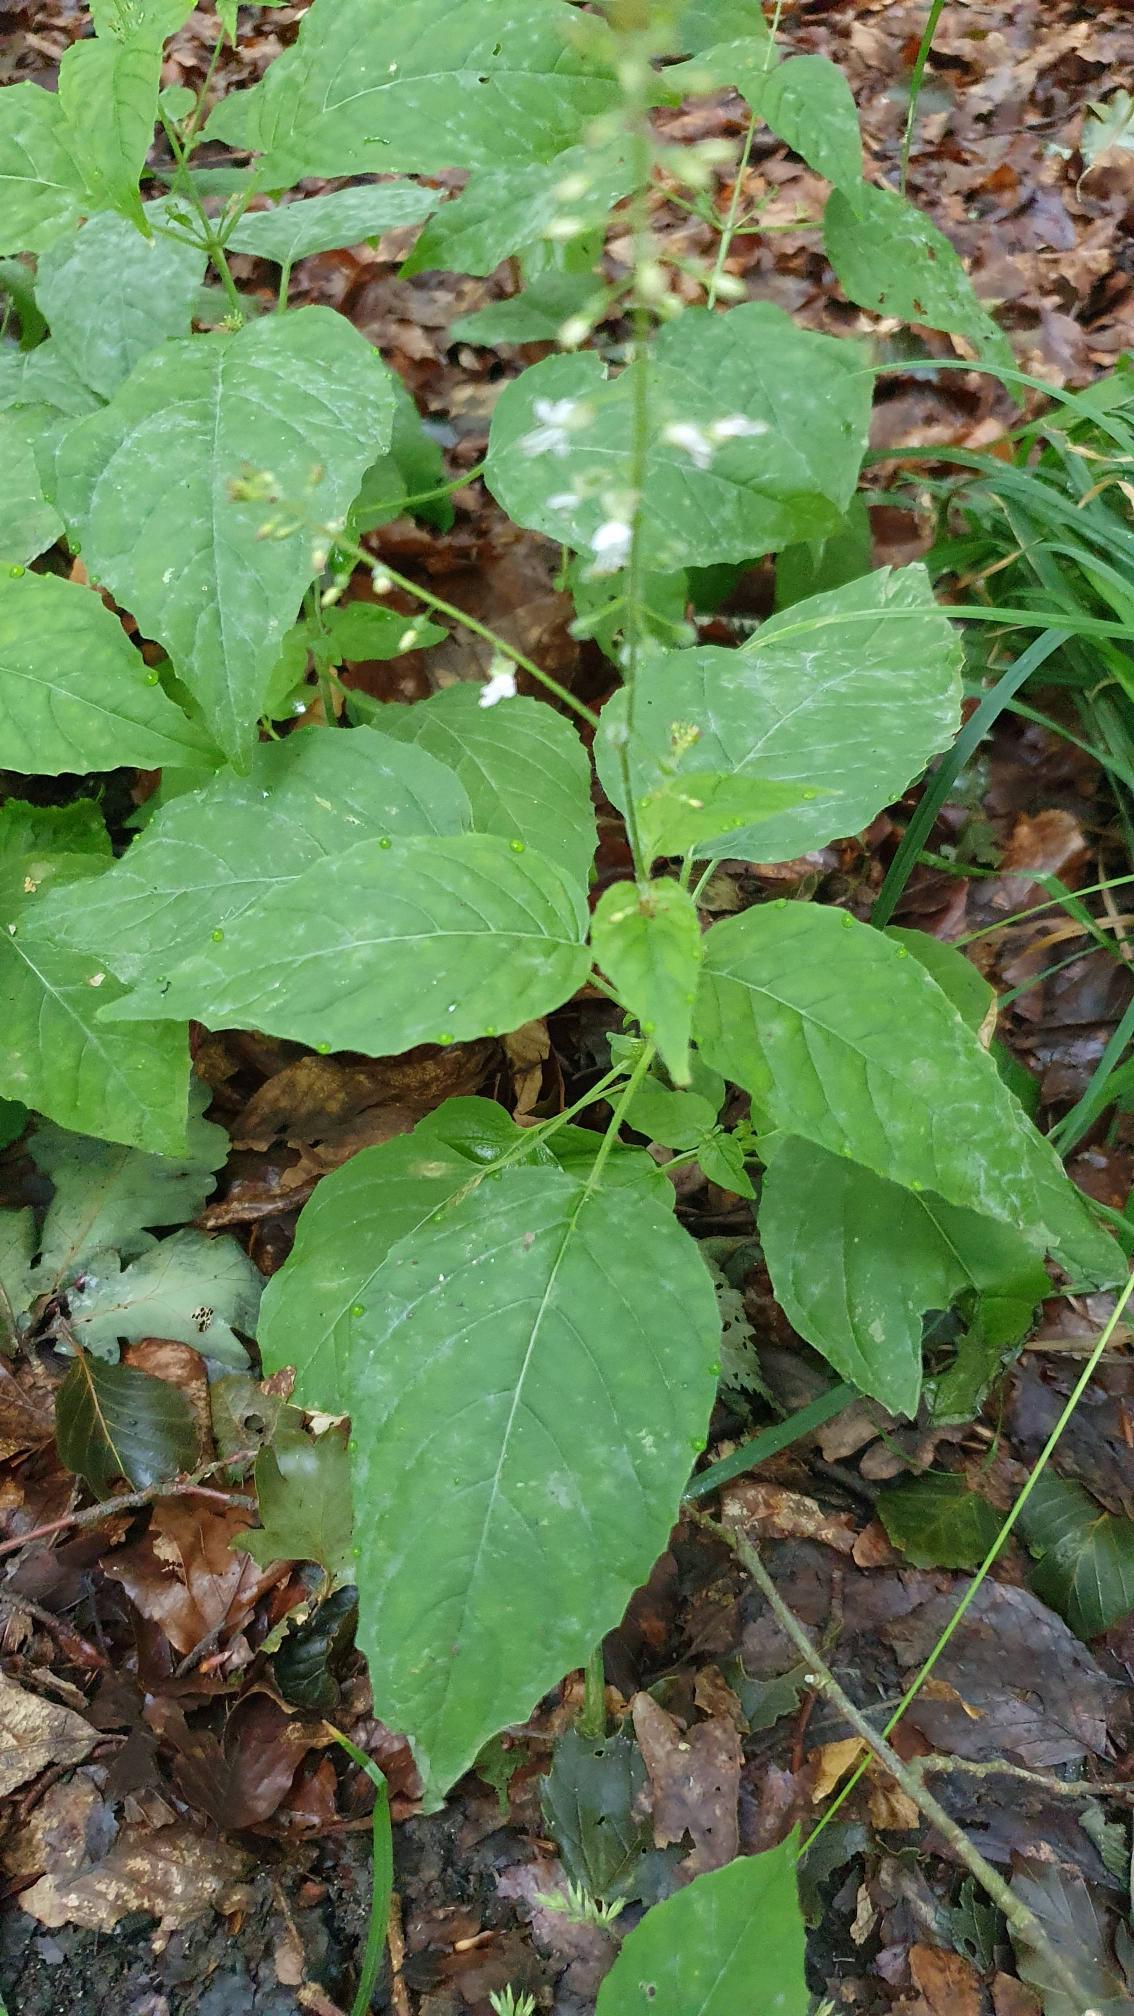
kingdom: Plantae
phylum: Tracheophyta
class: Magnoliopsida
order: Myrtales
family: Onagraceae
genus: Circaea
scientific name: Circaea lutetiana
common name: Dunet steffensurt
